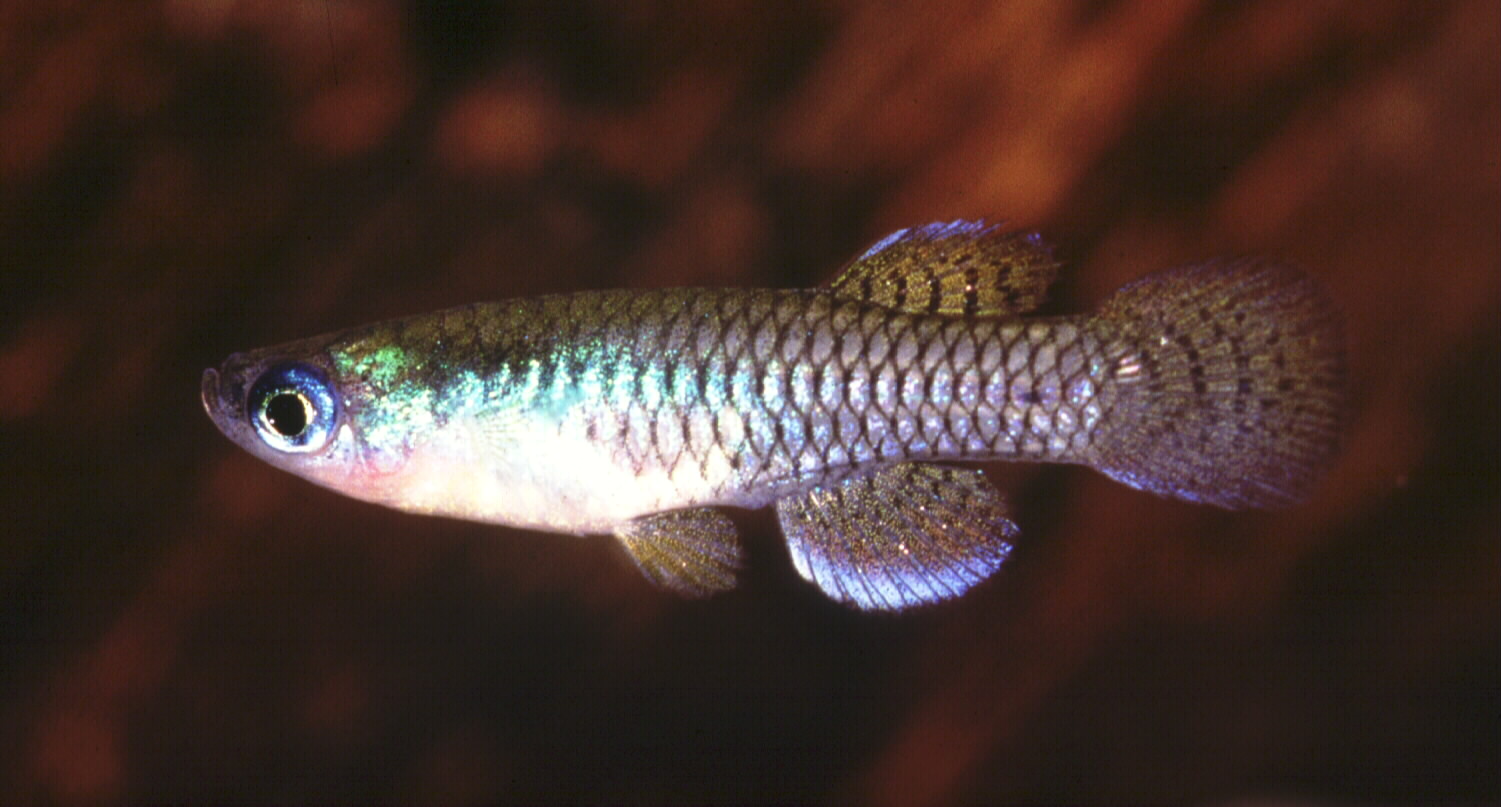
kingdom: Animalia
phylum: Chordata
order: Cyprinodontiformes
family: Poeciliidae
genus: Micropanchax
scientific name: Micropanchax hutereaui
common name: Meshscaled topminnow
